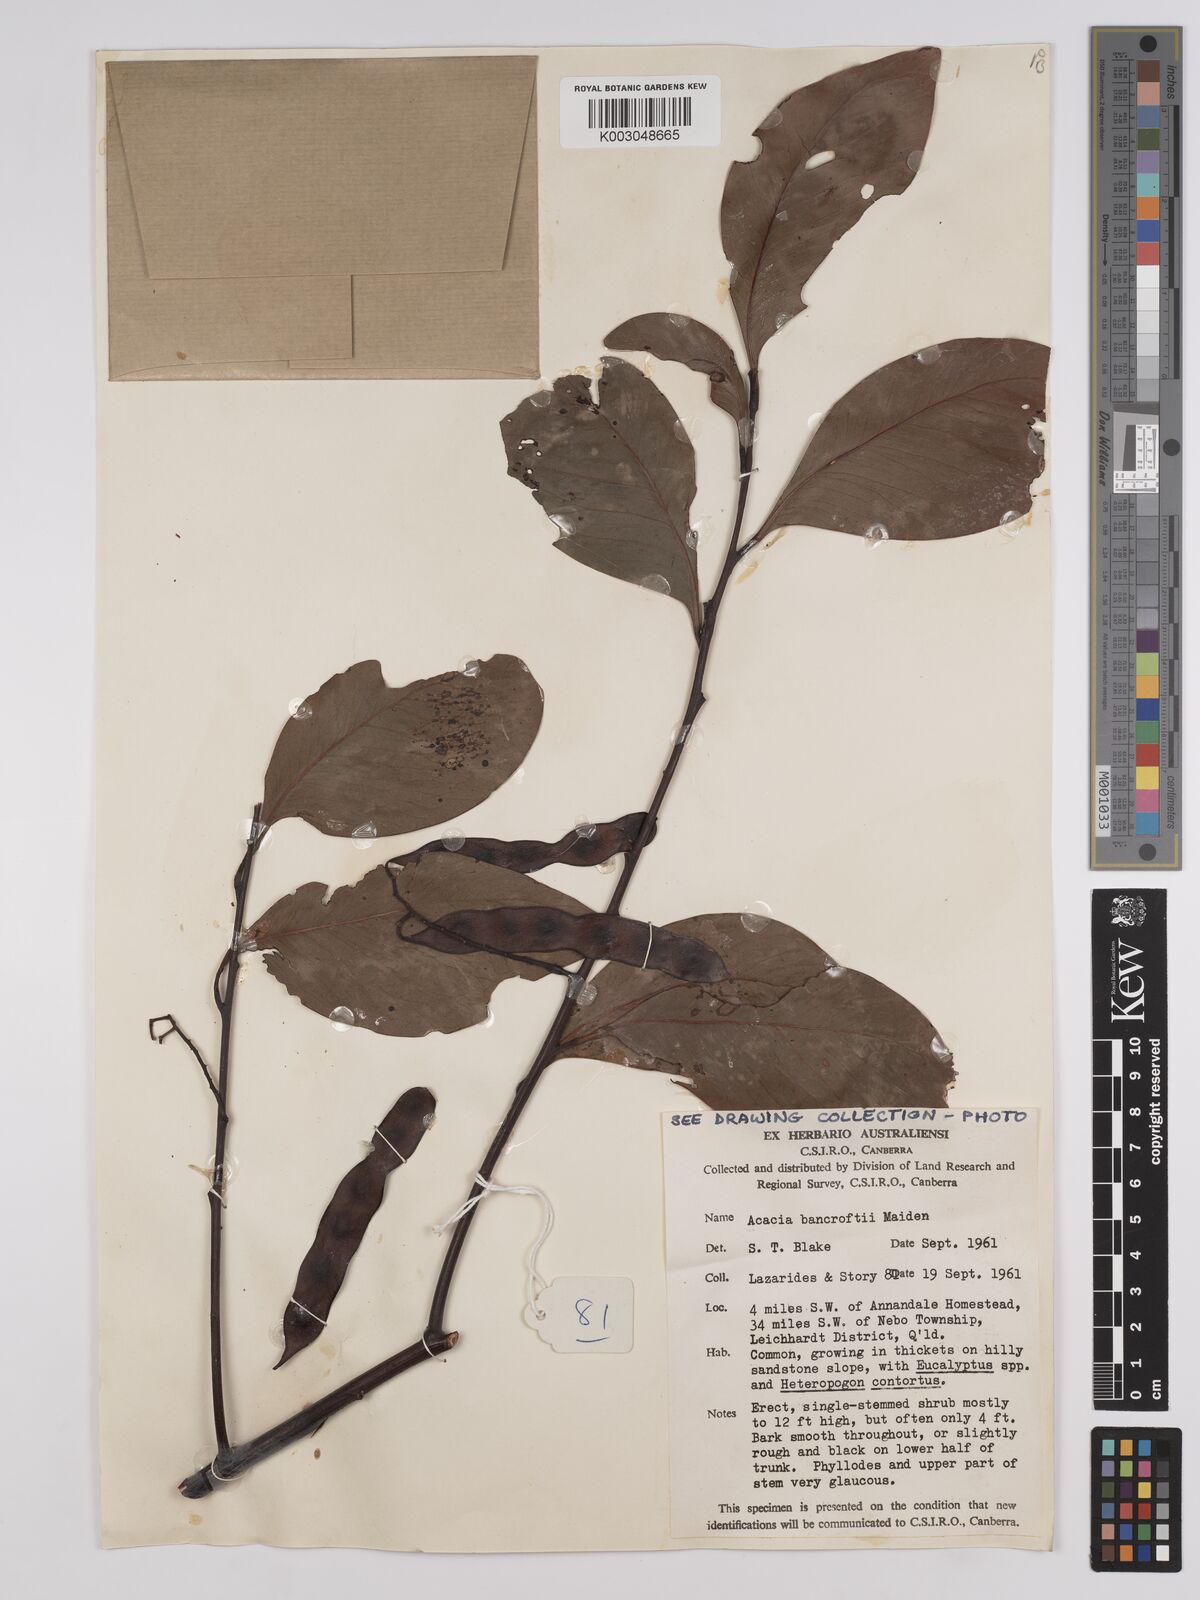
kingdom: Plantae
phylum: Tracheophyta
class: Magnoliopsida
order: Fabales
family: Fabaceae
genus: Acacia
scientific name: Acacia
